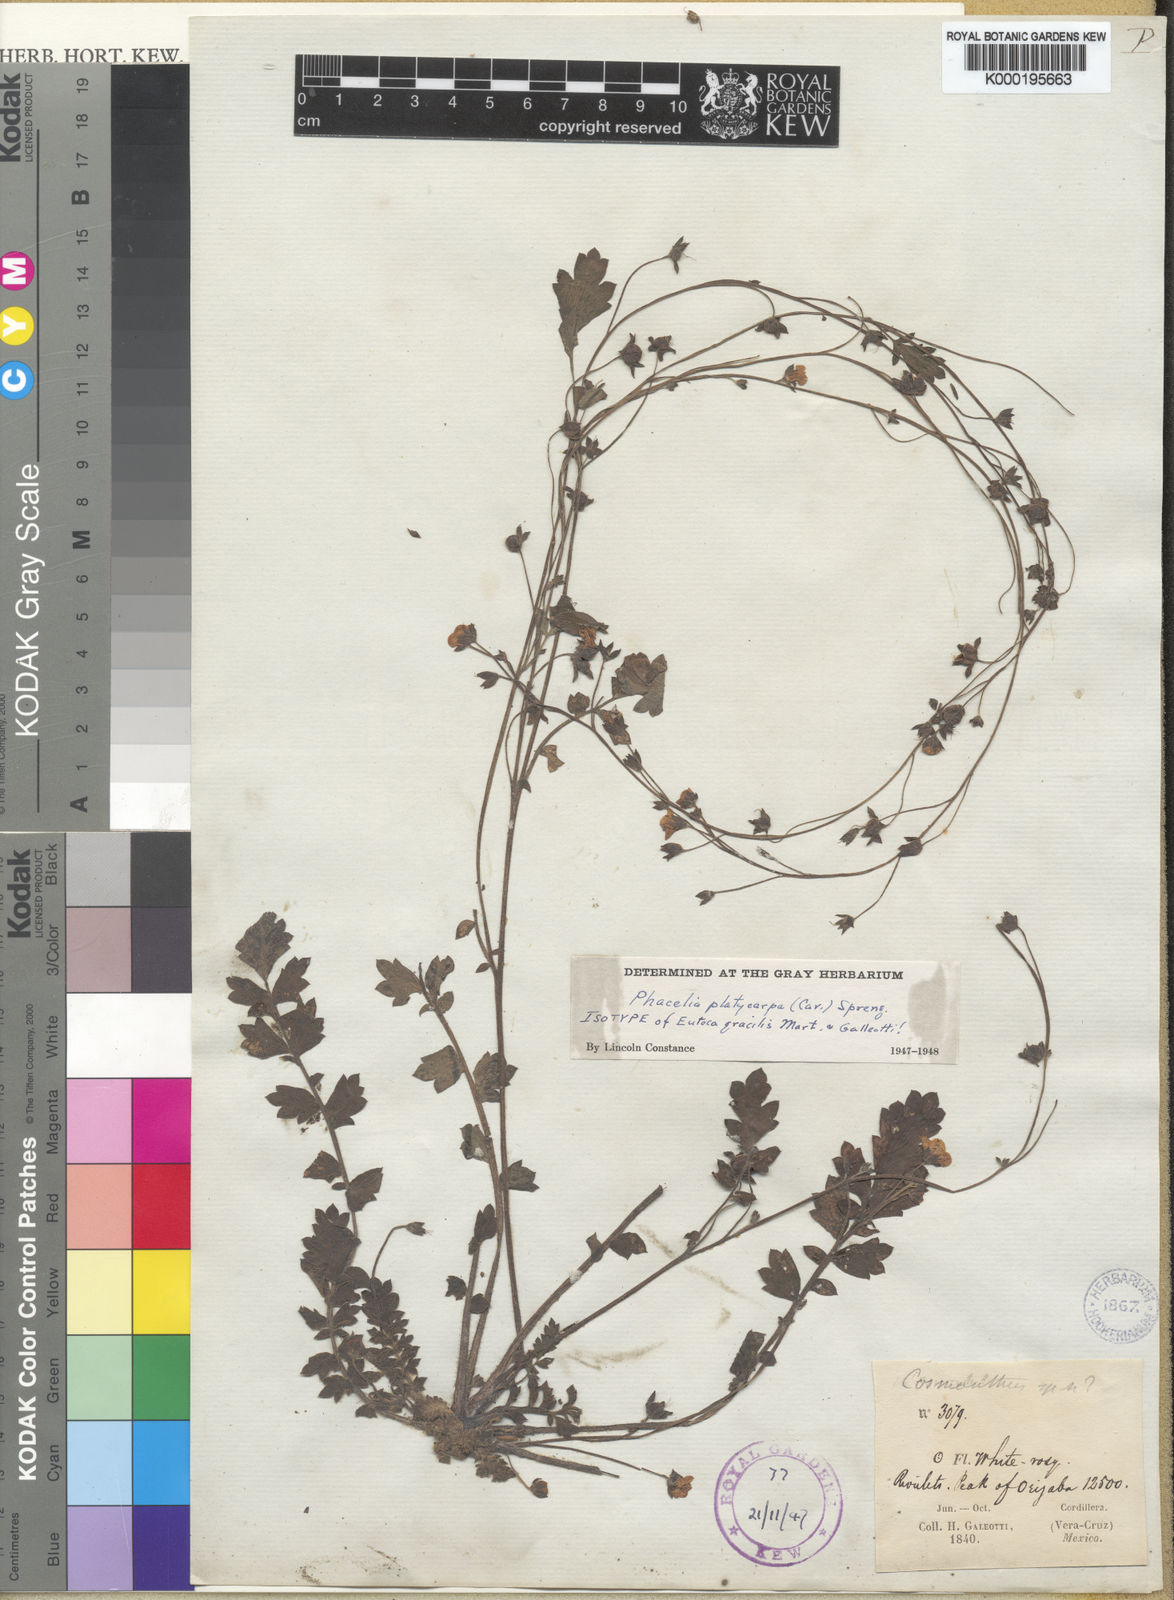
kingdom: Plantae
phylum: Tracheophyta
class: Magnoliopsida
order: Boraginales
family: Hydrophyllaceae
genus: Phacelia
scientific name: Phacelia platycarpa
